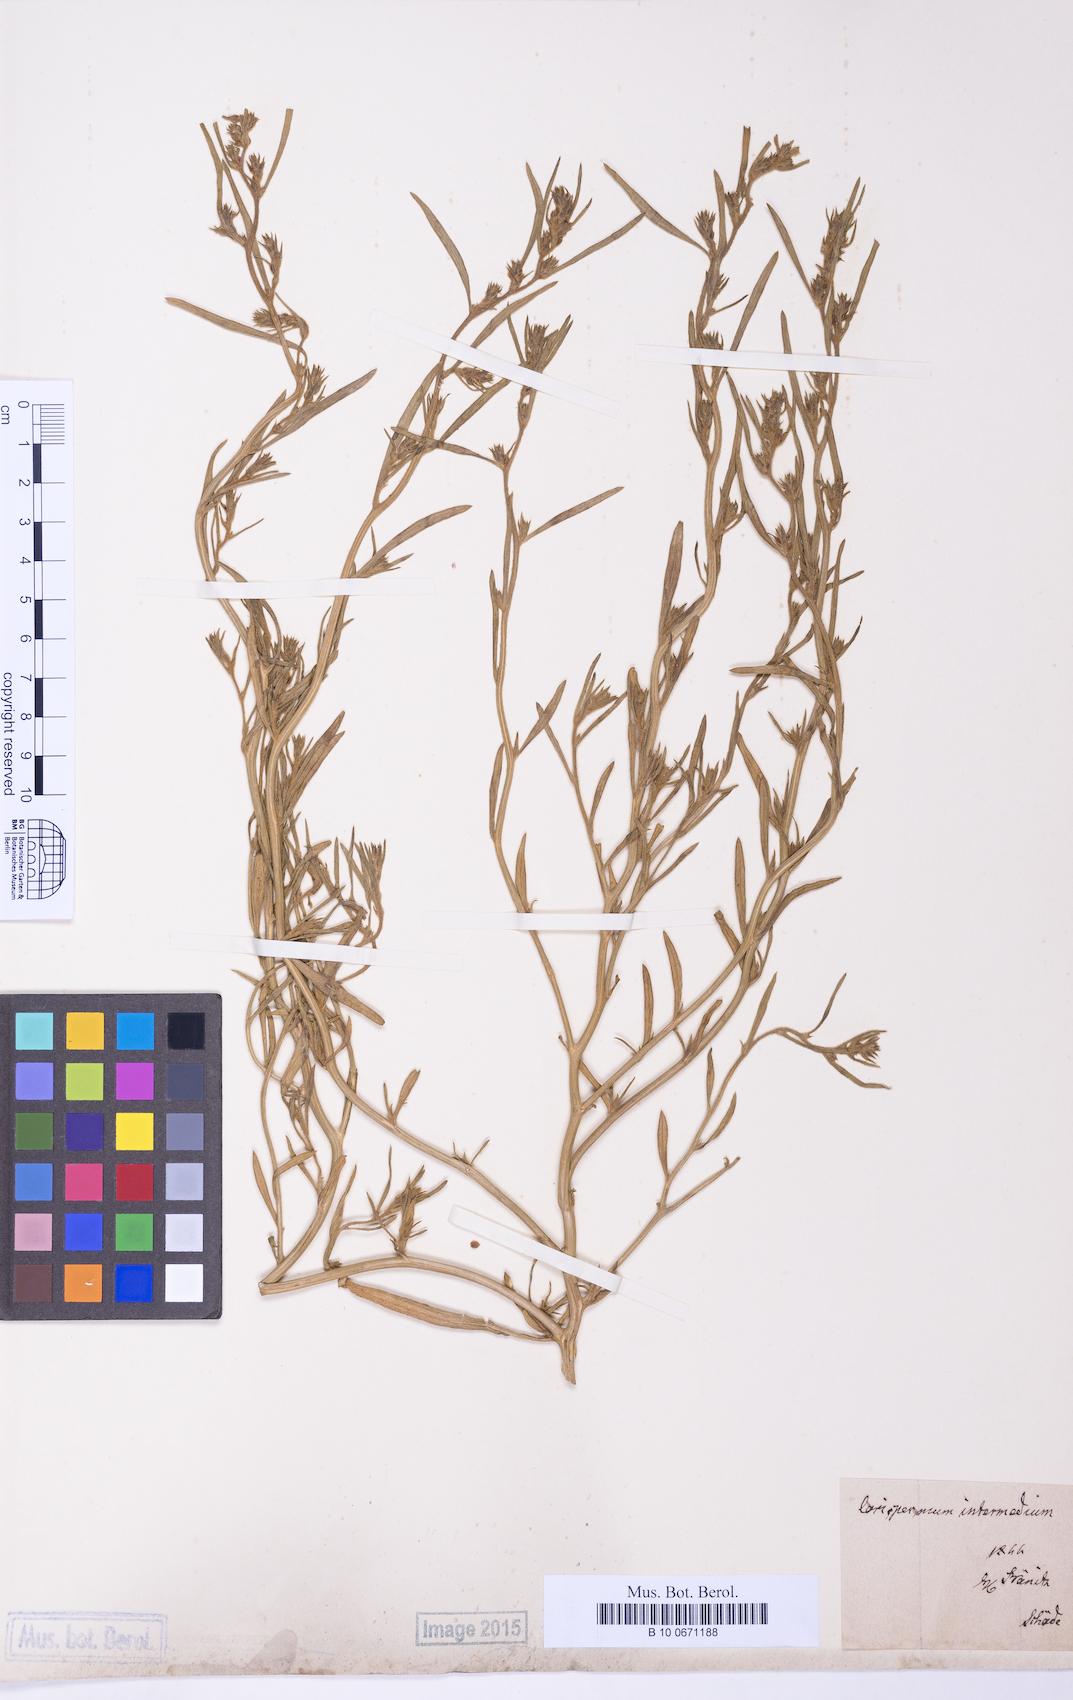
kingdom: Plantae
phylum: Tracheophyta
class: Magnoliopsida
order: Caryophyllales
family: Amaranthaceae
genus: Corispermum
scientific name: Corispermum intermedium
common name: Hyssop-leaved tickseed
